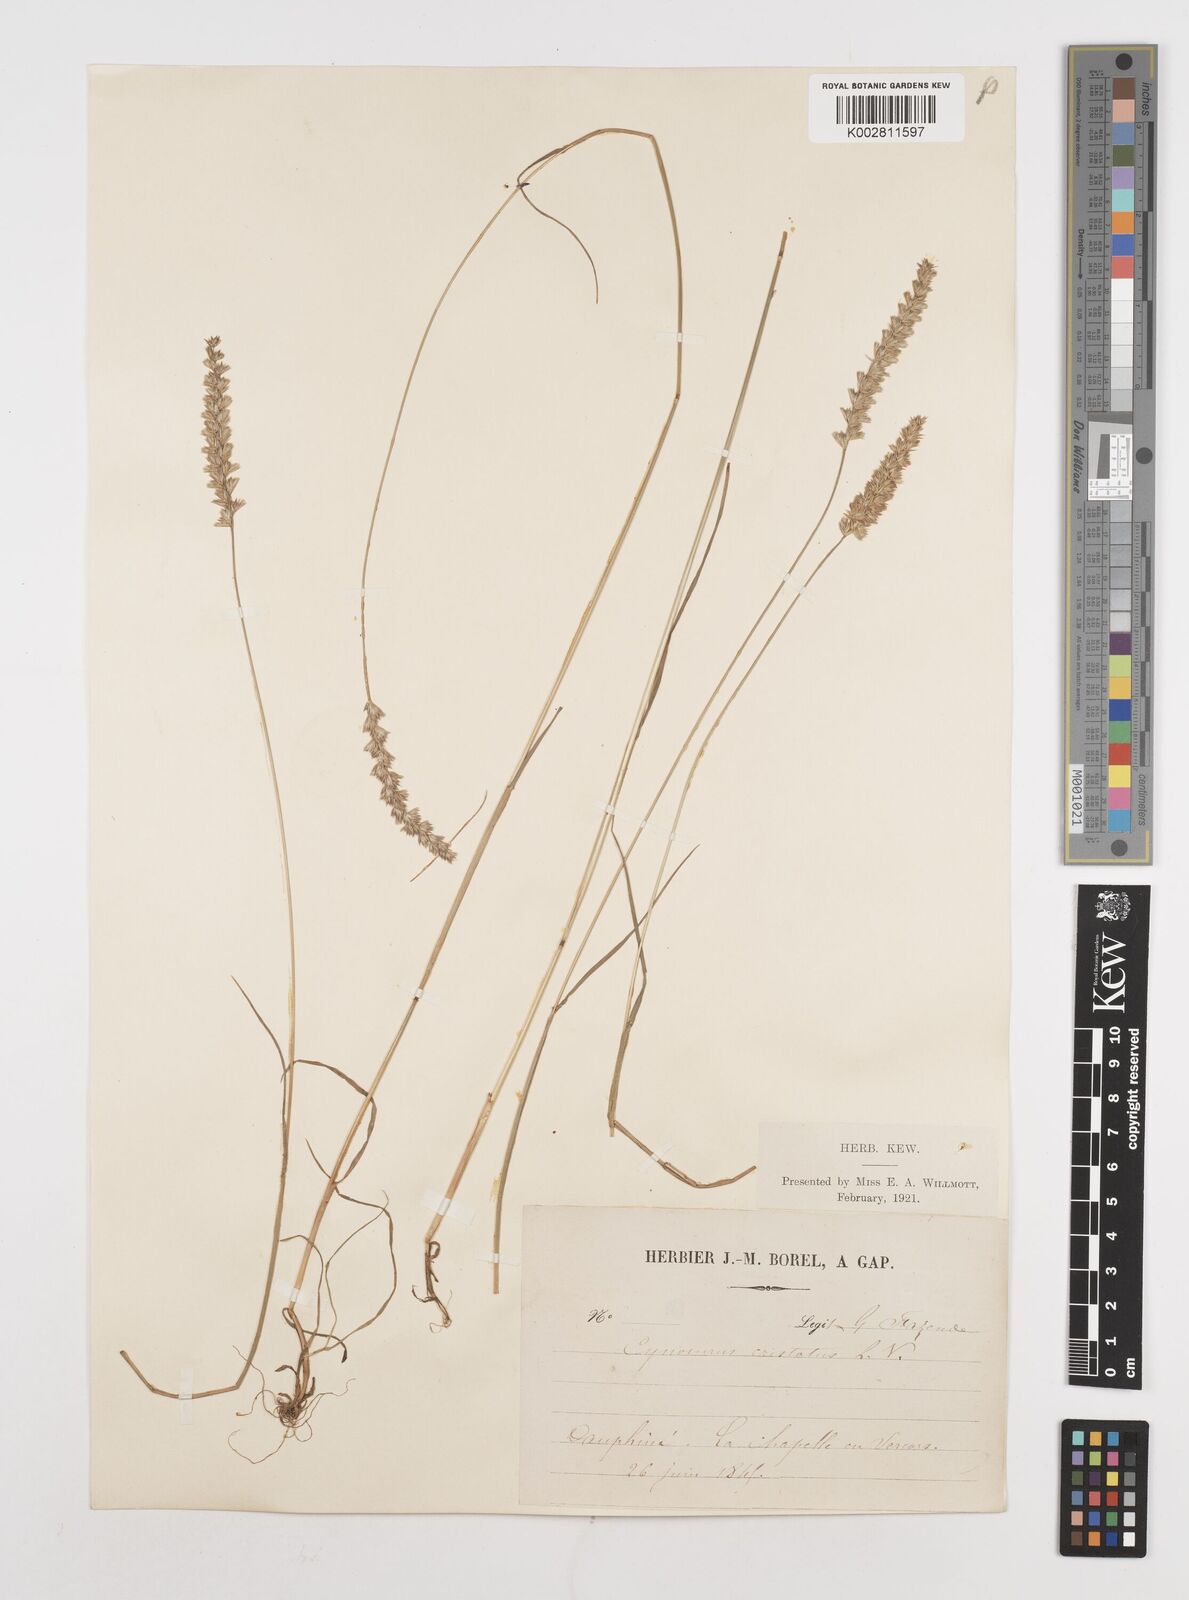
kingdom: Plantae
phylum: Tracheophyta
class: Liliopsida
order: Poales
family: Poaceae
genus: Cynosurus
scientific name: Cynosurus cristatus
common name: Crested dog's-tail
